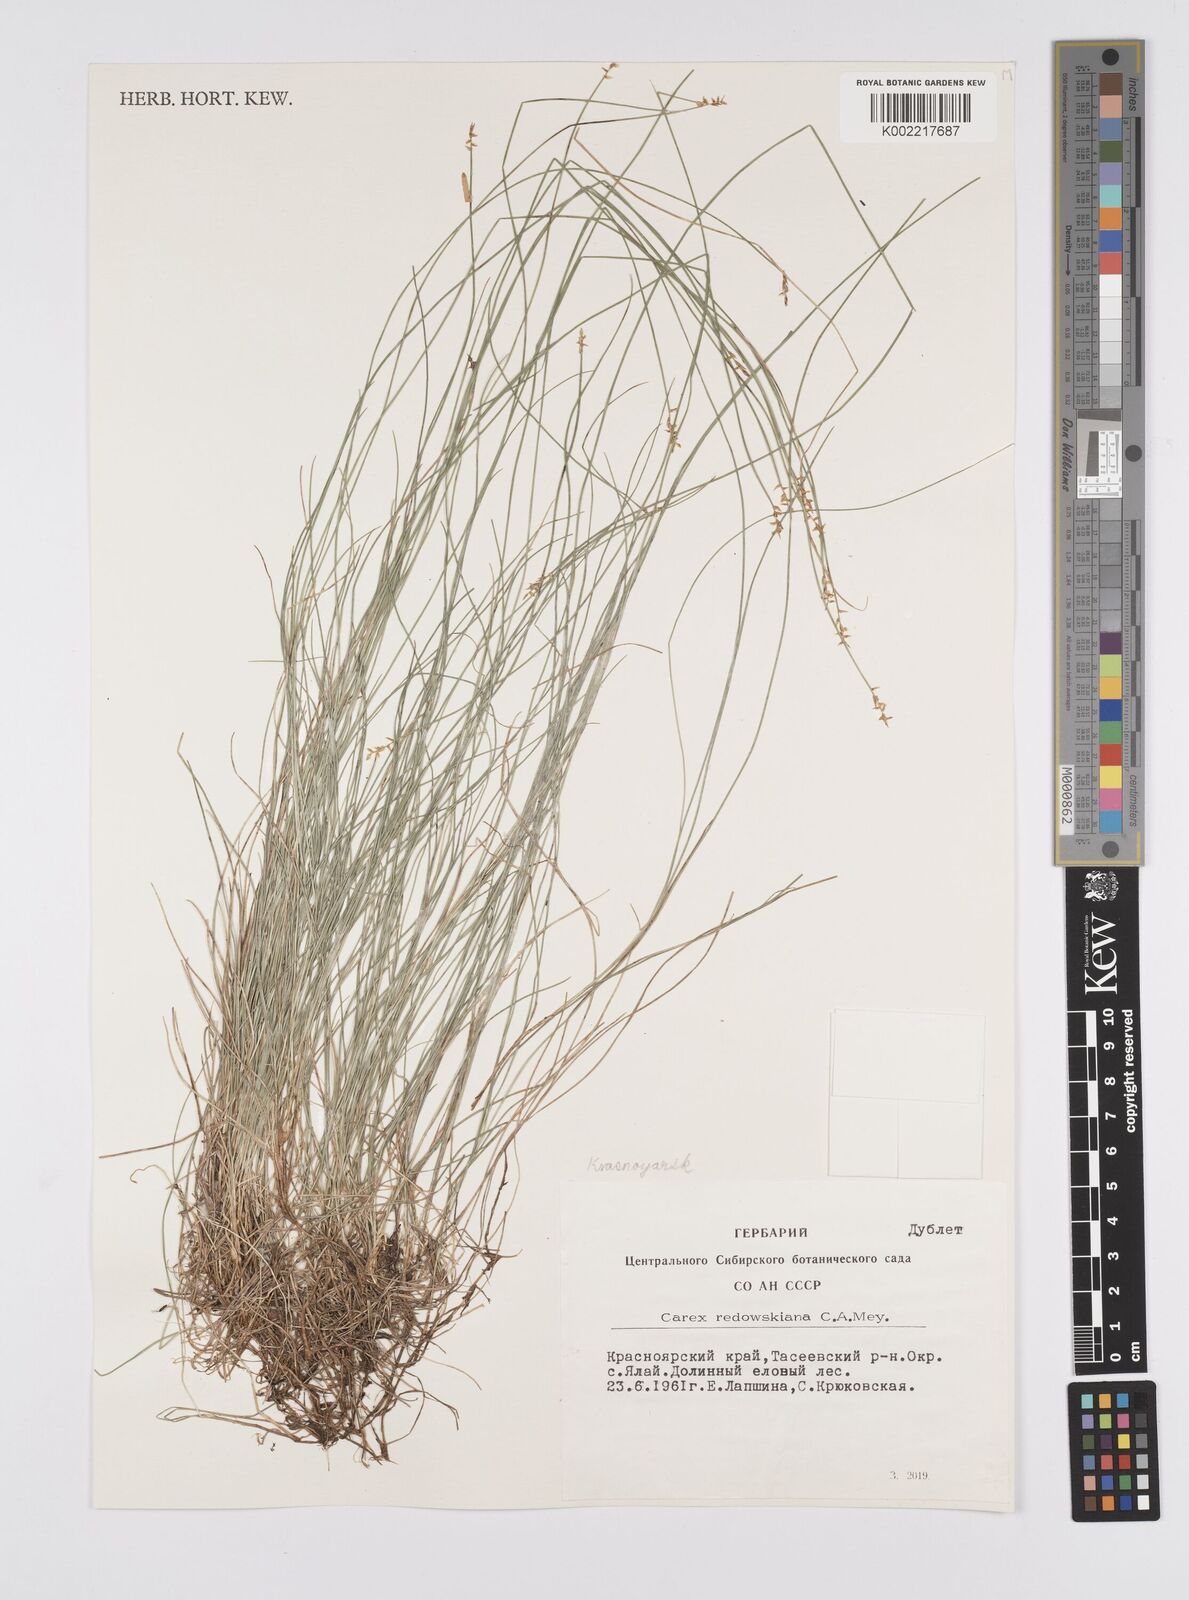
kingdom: Plantae
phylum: Tracheophyta
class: Liliopsida
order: Poales
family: Cyperaceae
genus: Carex
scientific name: Carex parallela
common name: Parallel sedge
